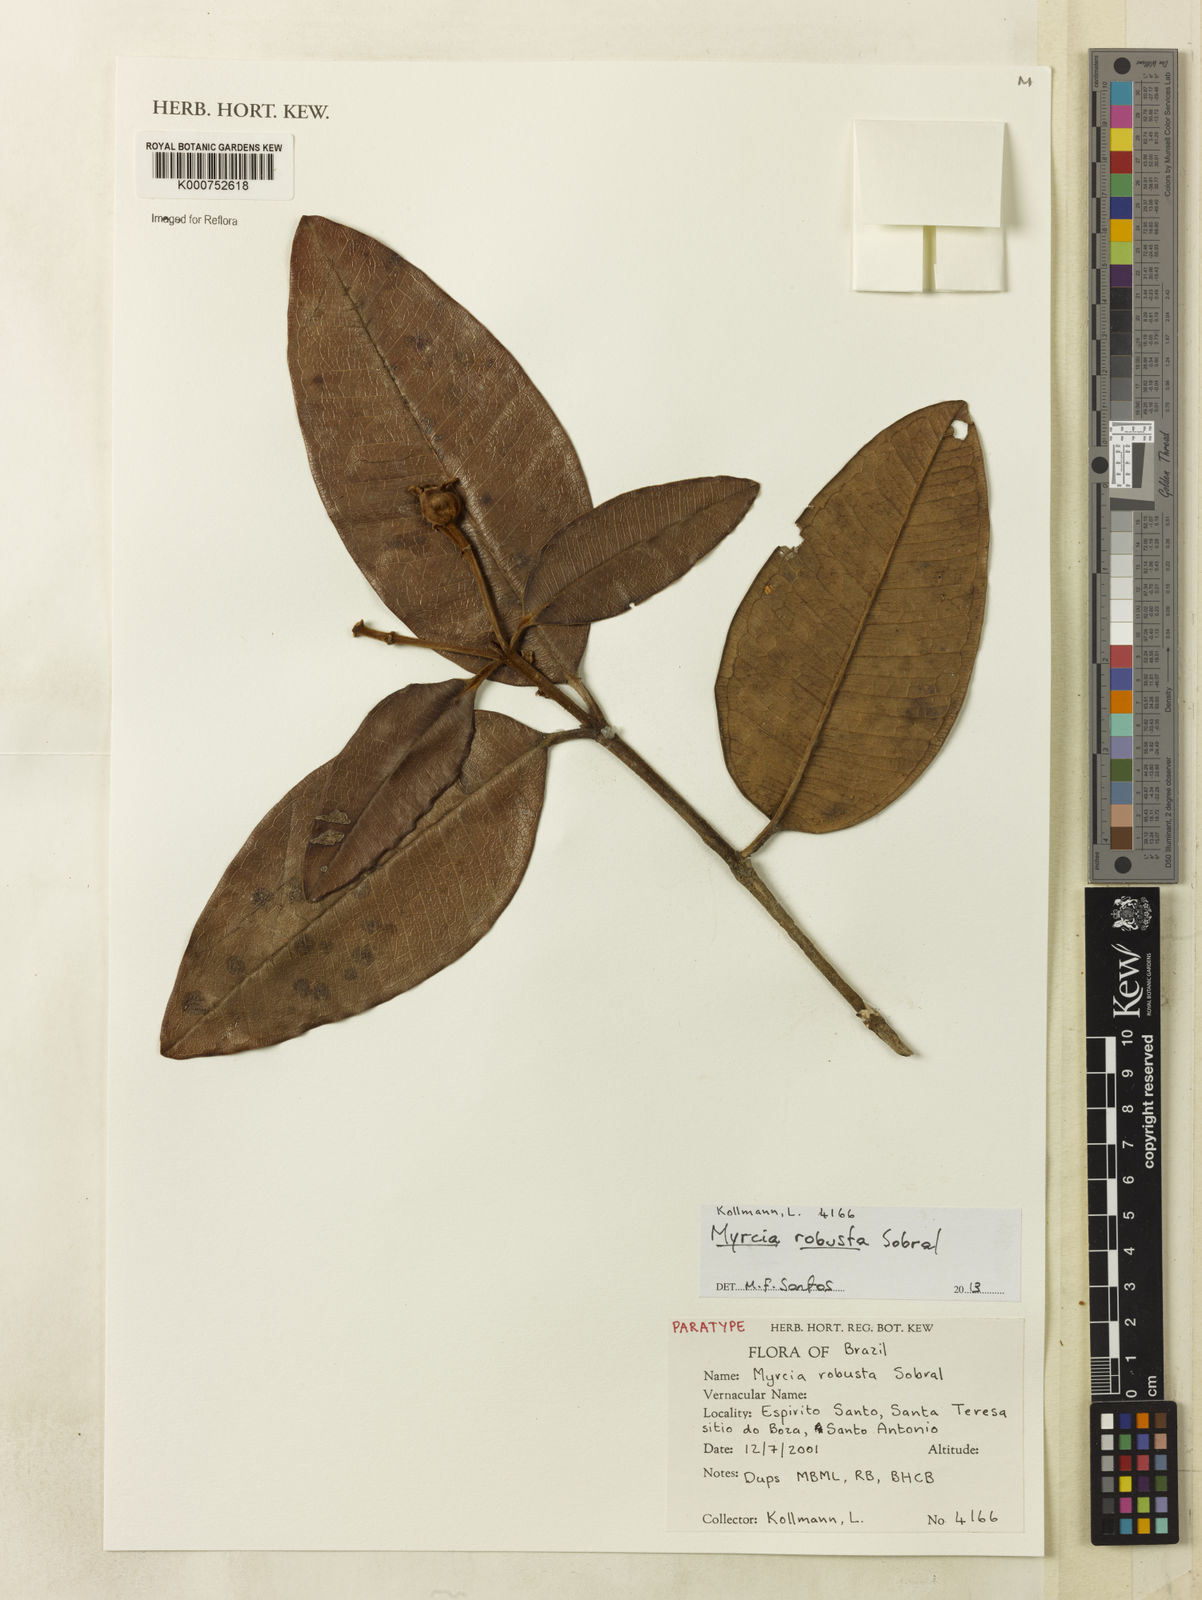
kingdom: Plantae
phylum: Tracheophyta
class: Magnoliopsida
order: Myrtales
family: Myrtaceae
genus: Myrcia
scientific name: Myrcia robusta
